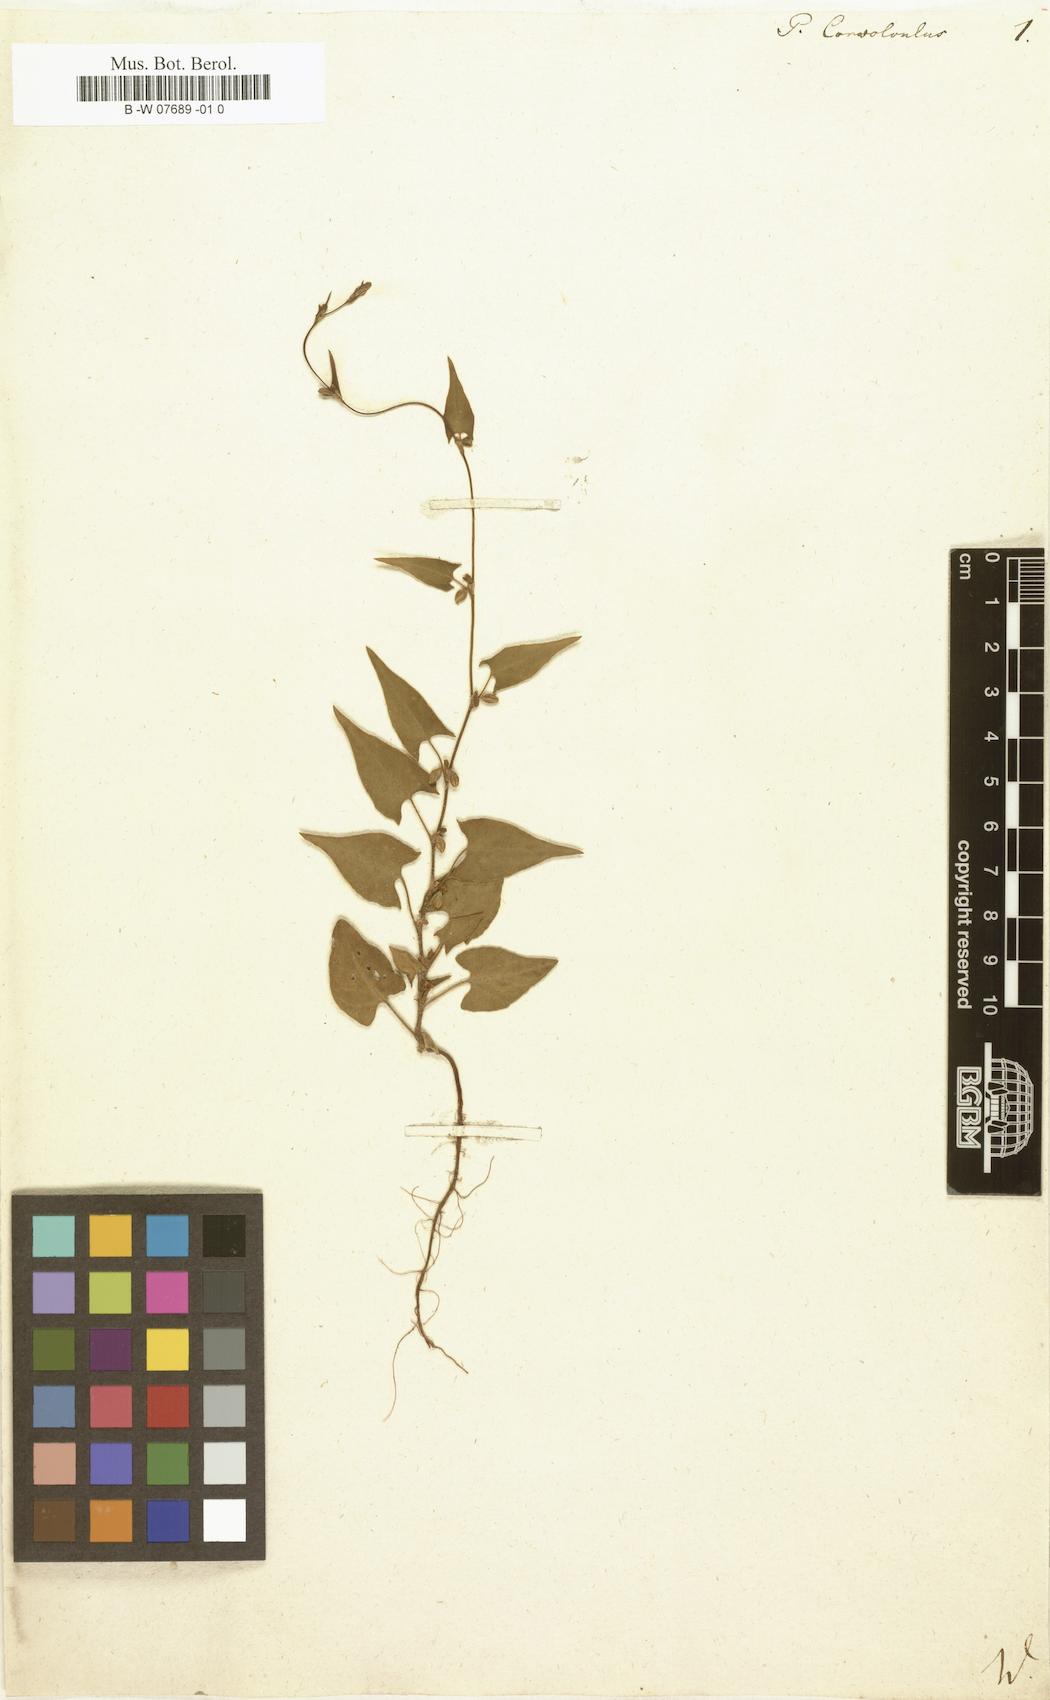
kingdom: Plantae
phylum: Tracheophyta
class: Magnoliopsida
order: Caryophyllales
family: Polygonaceae
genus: Fallopia
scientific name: Fallopia convolvulus
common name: Black bindweed
